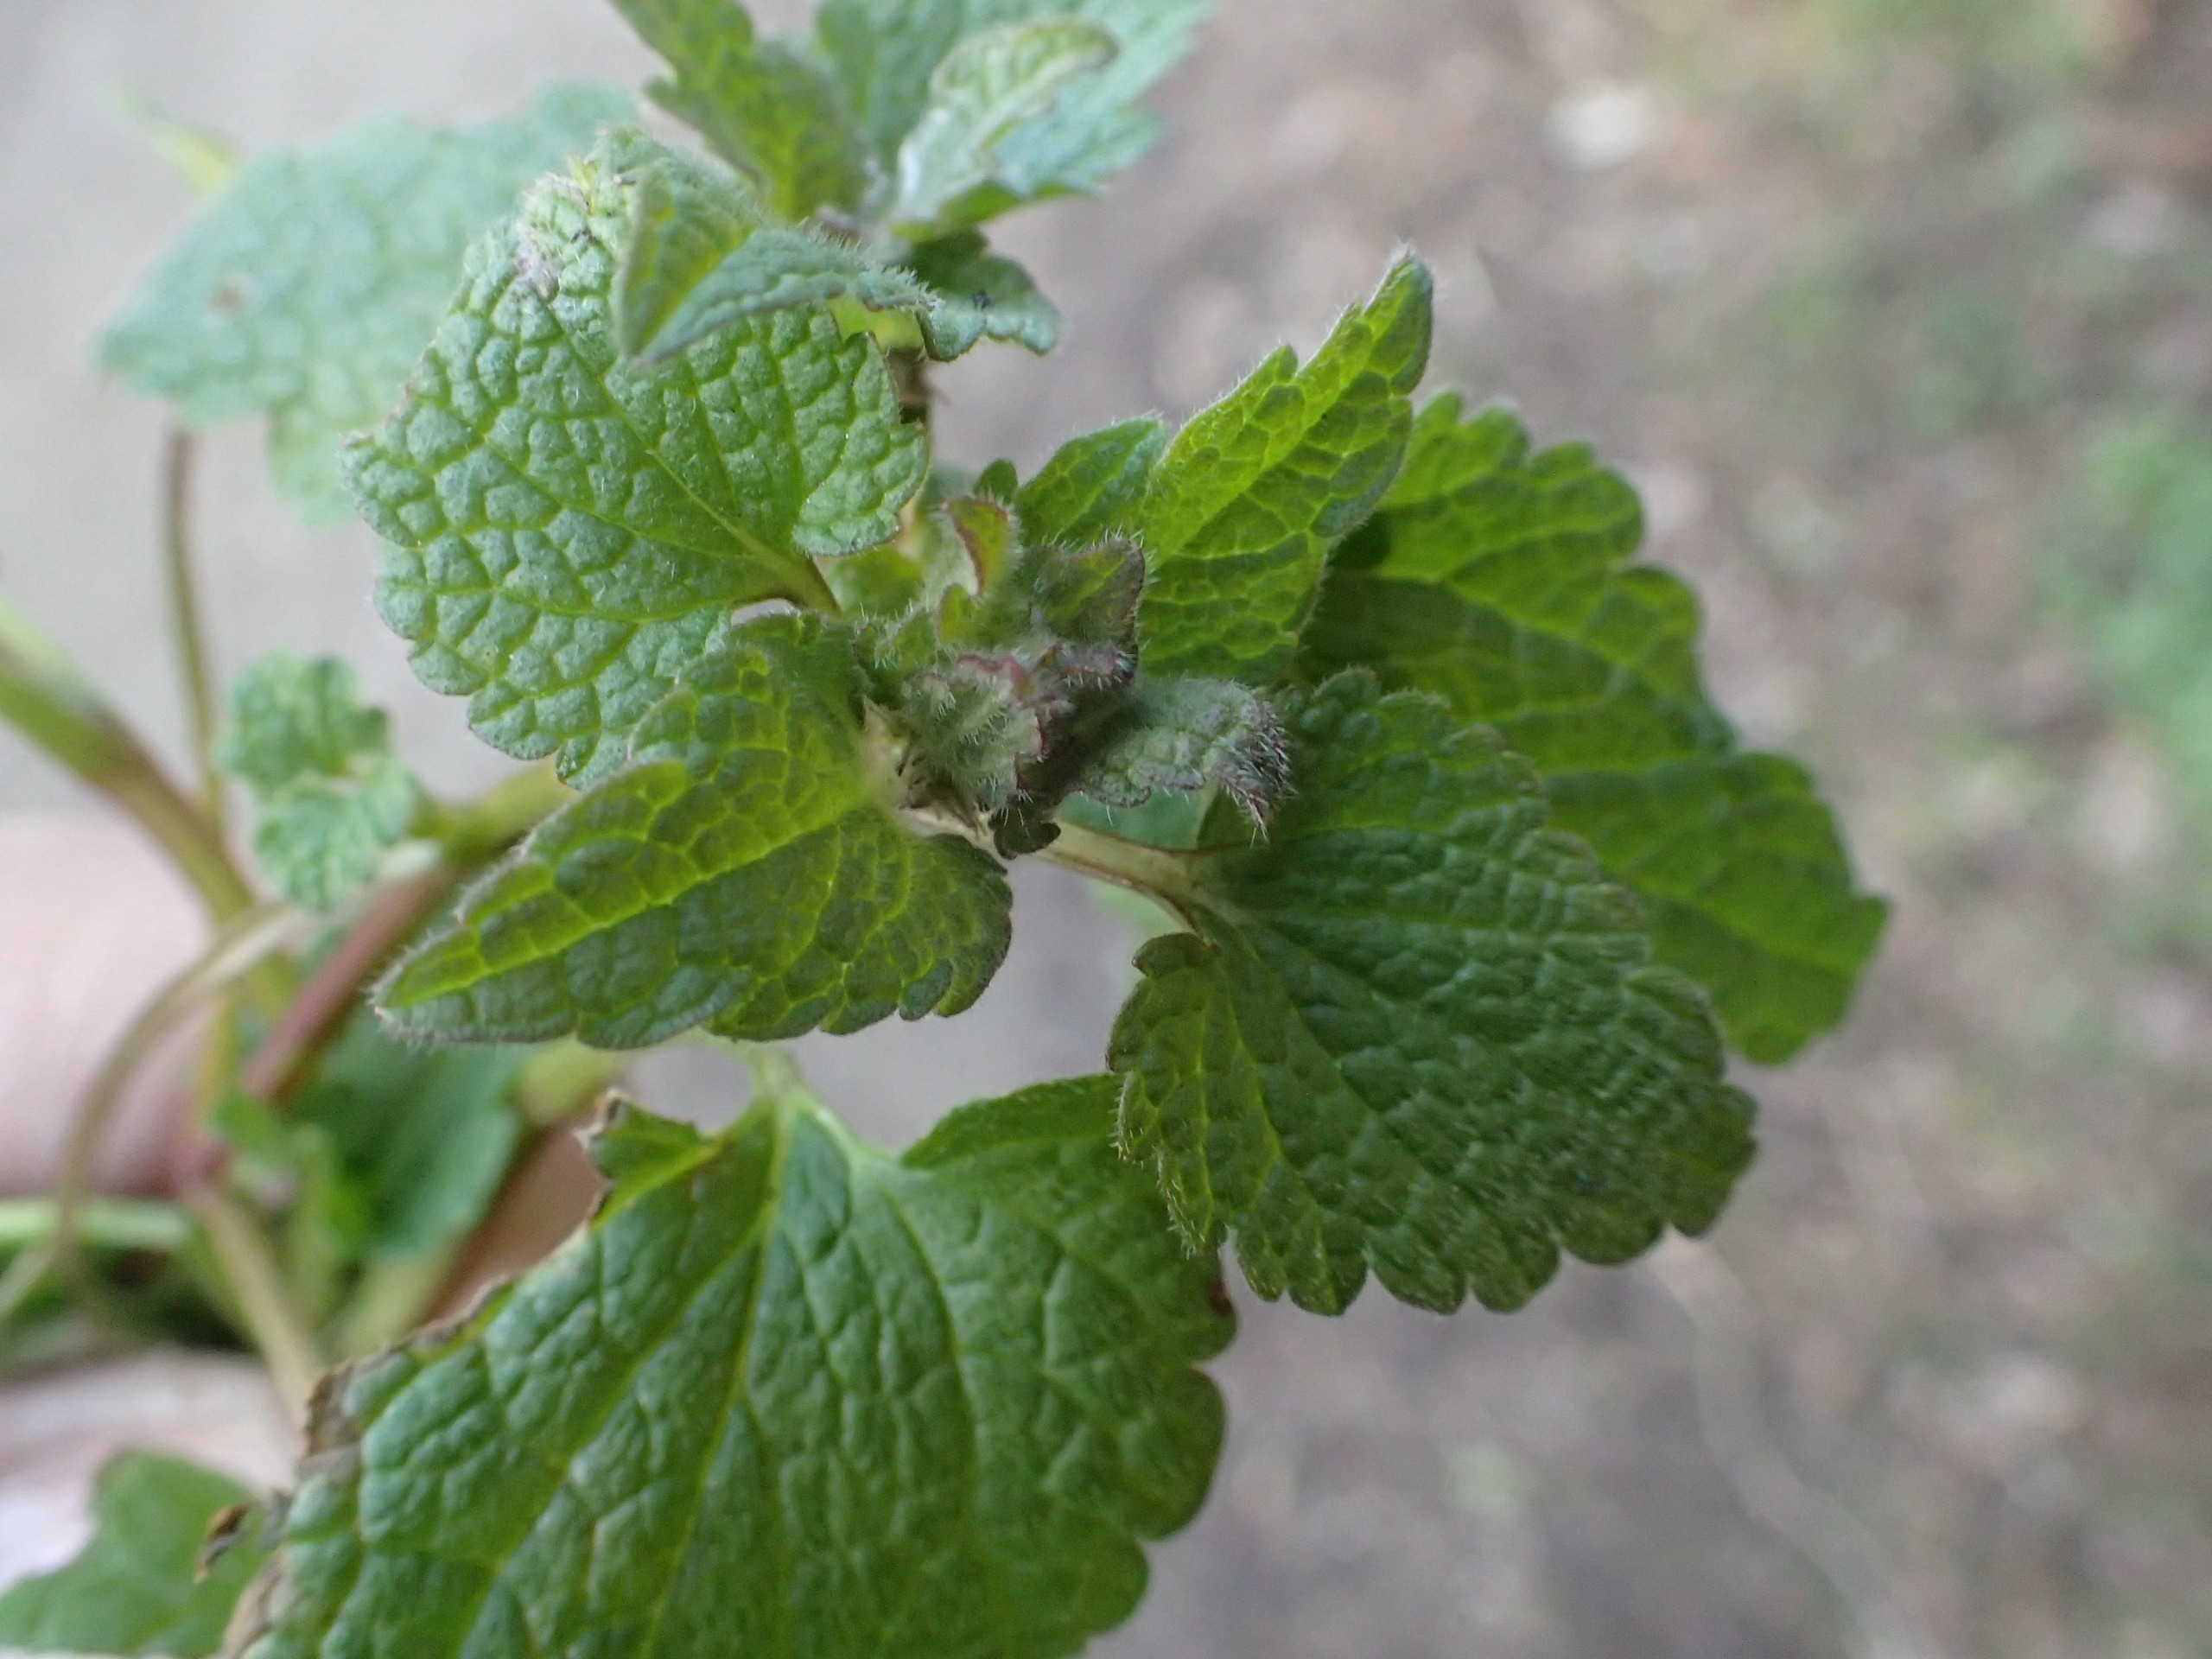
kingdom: Plantae
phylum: Tracheophyta
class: Magnoliopsida
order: Lamiales
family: Lamiaceae
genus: Lamium
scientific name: Lamium purpureum
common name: Rød tvetand
